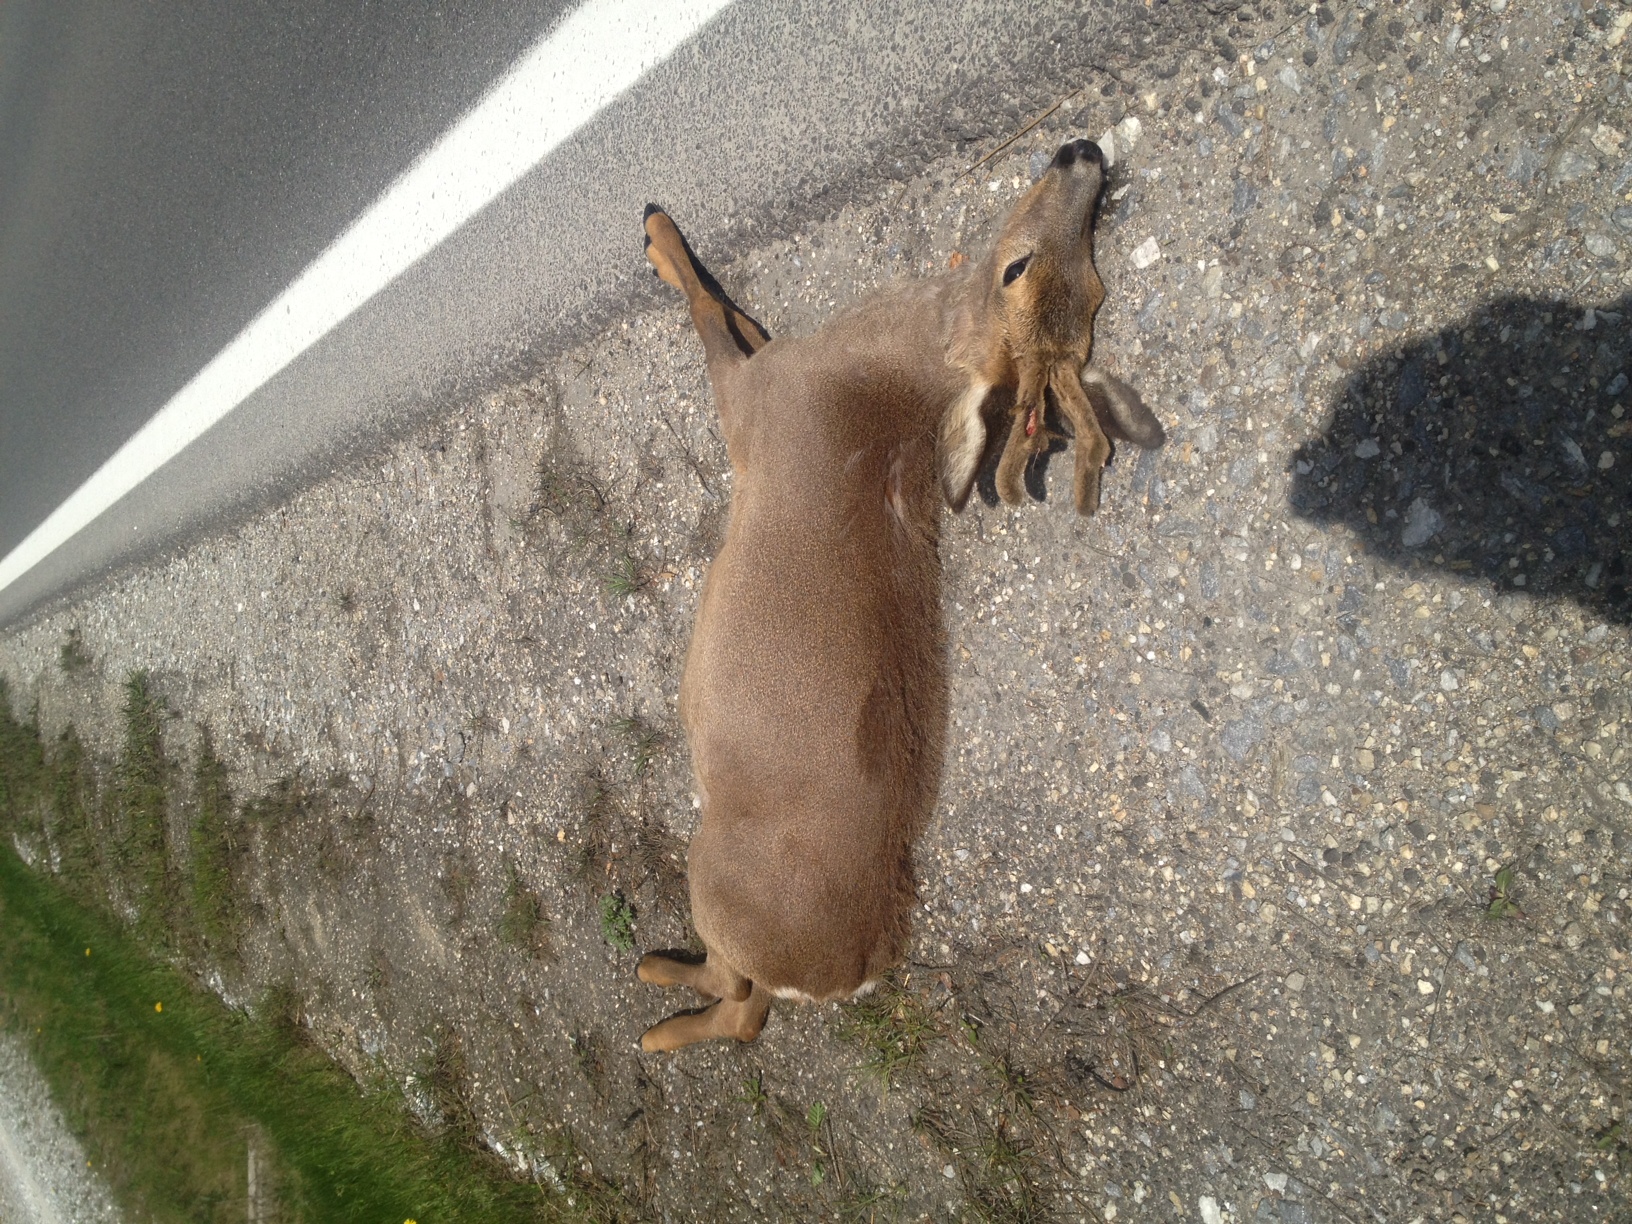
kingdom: Animalia
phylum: Chordata
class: Mammalia
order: Artiodactyla
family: Cervidae
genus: Capreolus
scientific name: Capreolus capreolus
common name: Western roe deer
